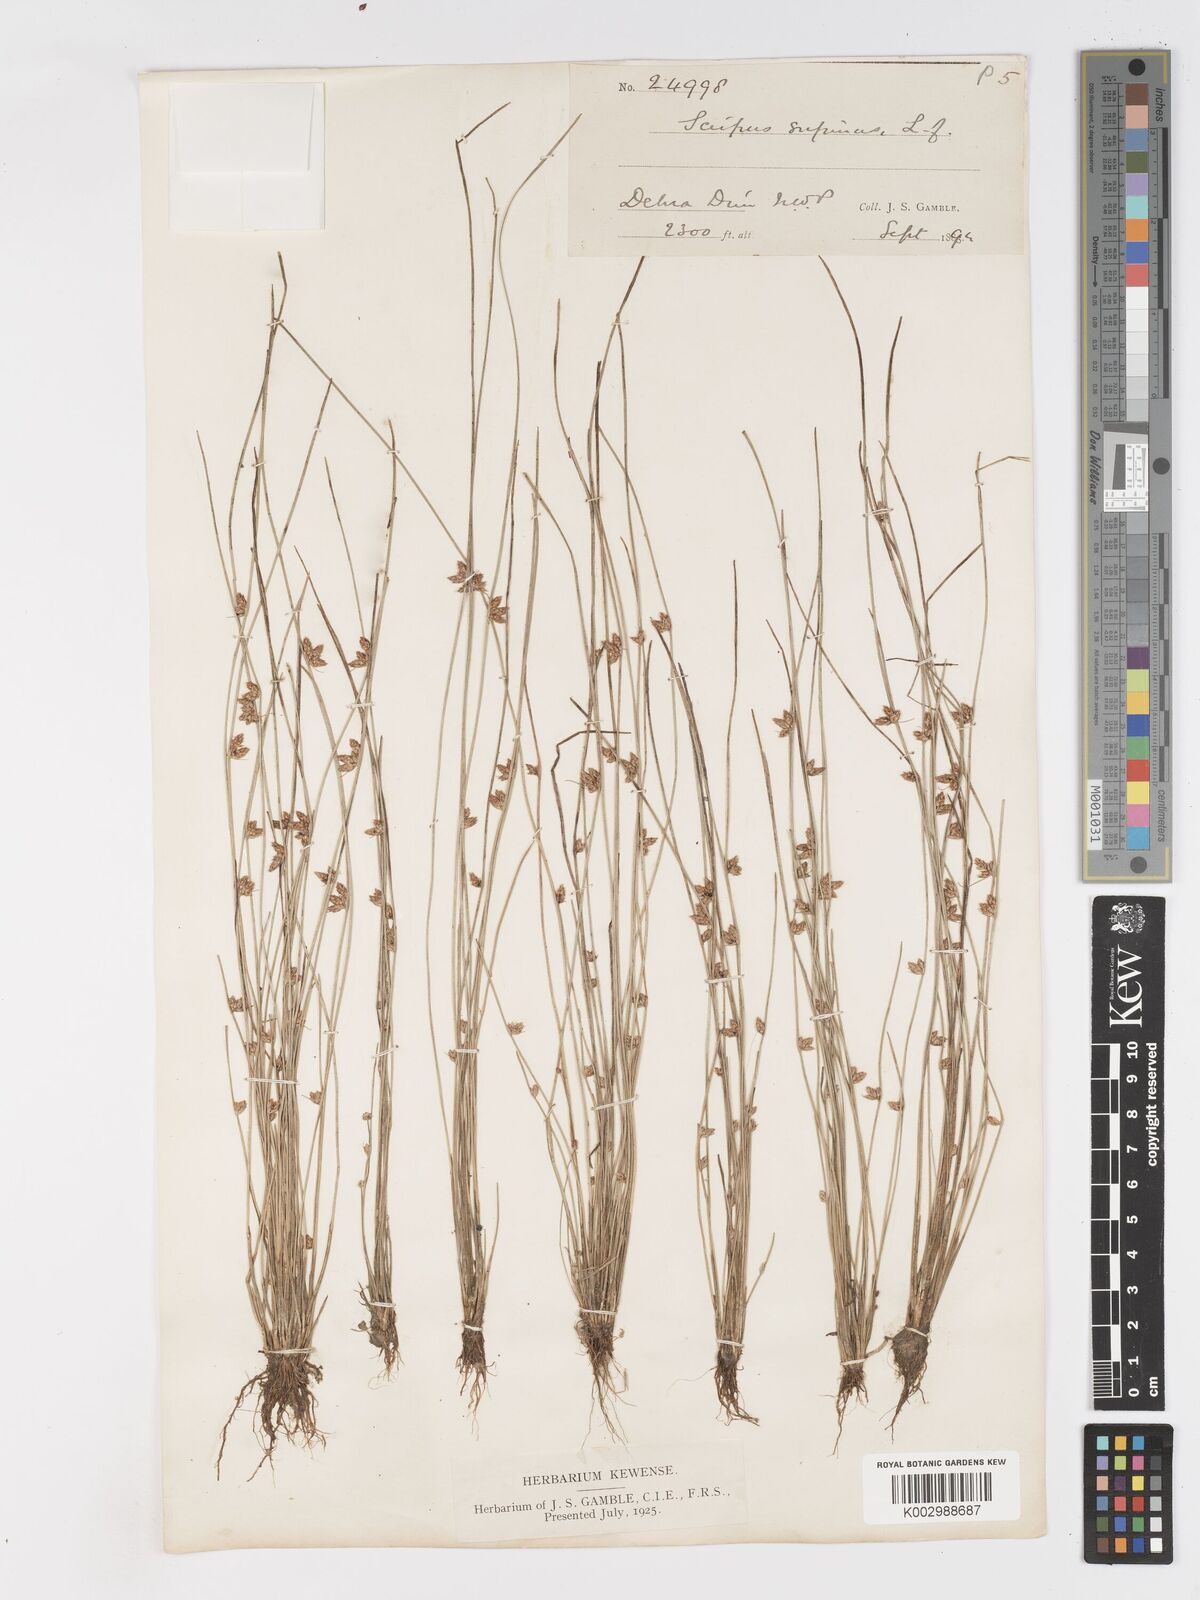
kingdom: Plantae
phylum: Tracheophyta
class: Liliopsida
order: Poales
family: Cyperaceae
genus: Schoenoplectiella
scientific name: Schoenoplectiella lateriflora
